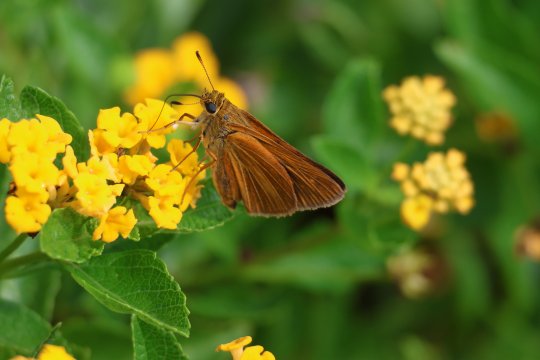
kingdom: Animalia
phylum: Arthropoda
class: Insecta
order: Lepidoptera
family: Hesperiidae
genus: Euphyes
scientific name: Euphyes dion
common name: Dion Skipper
